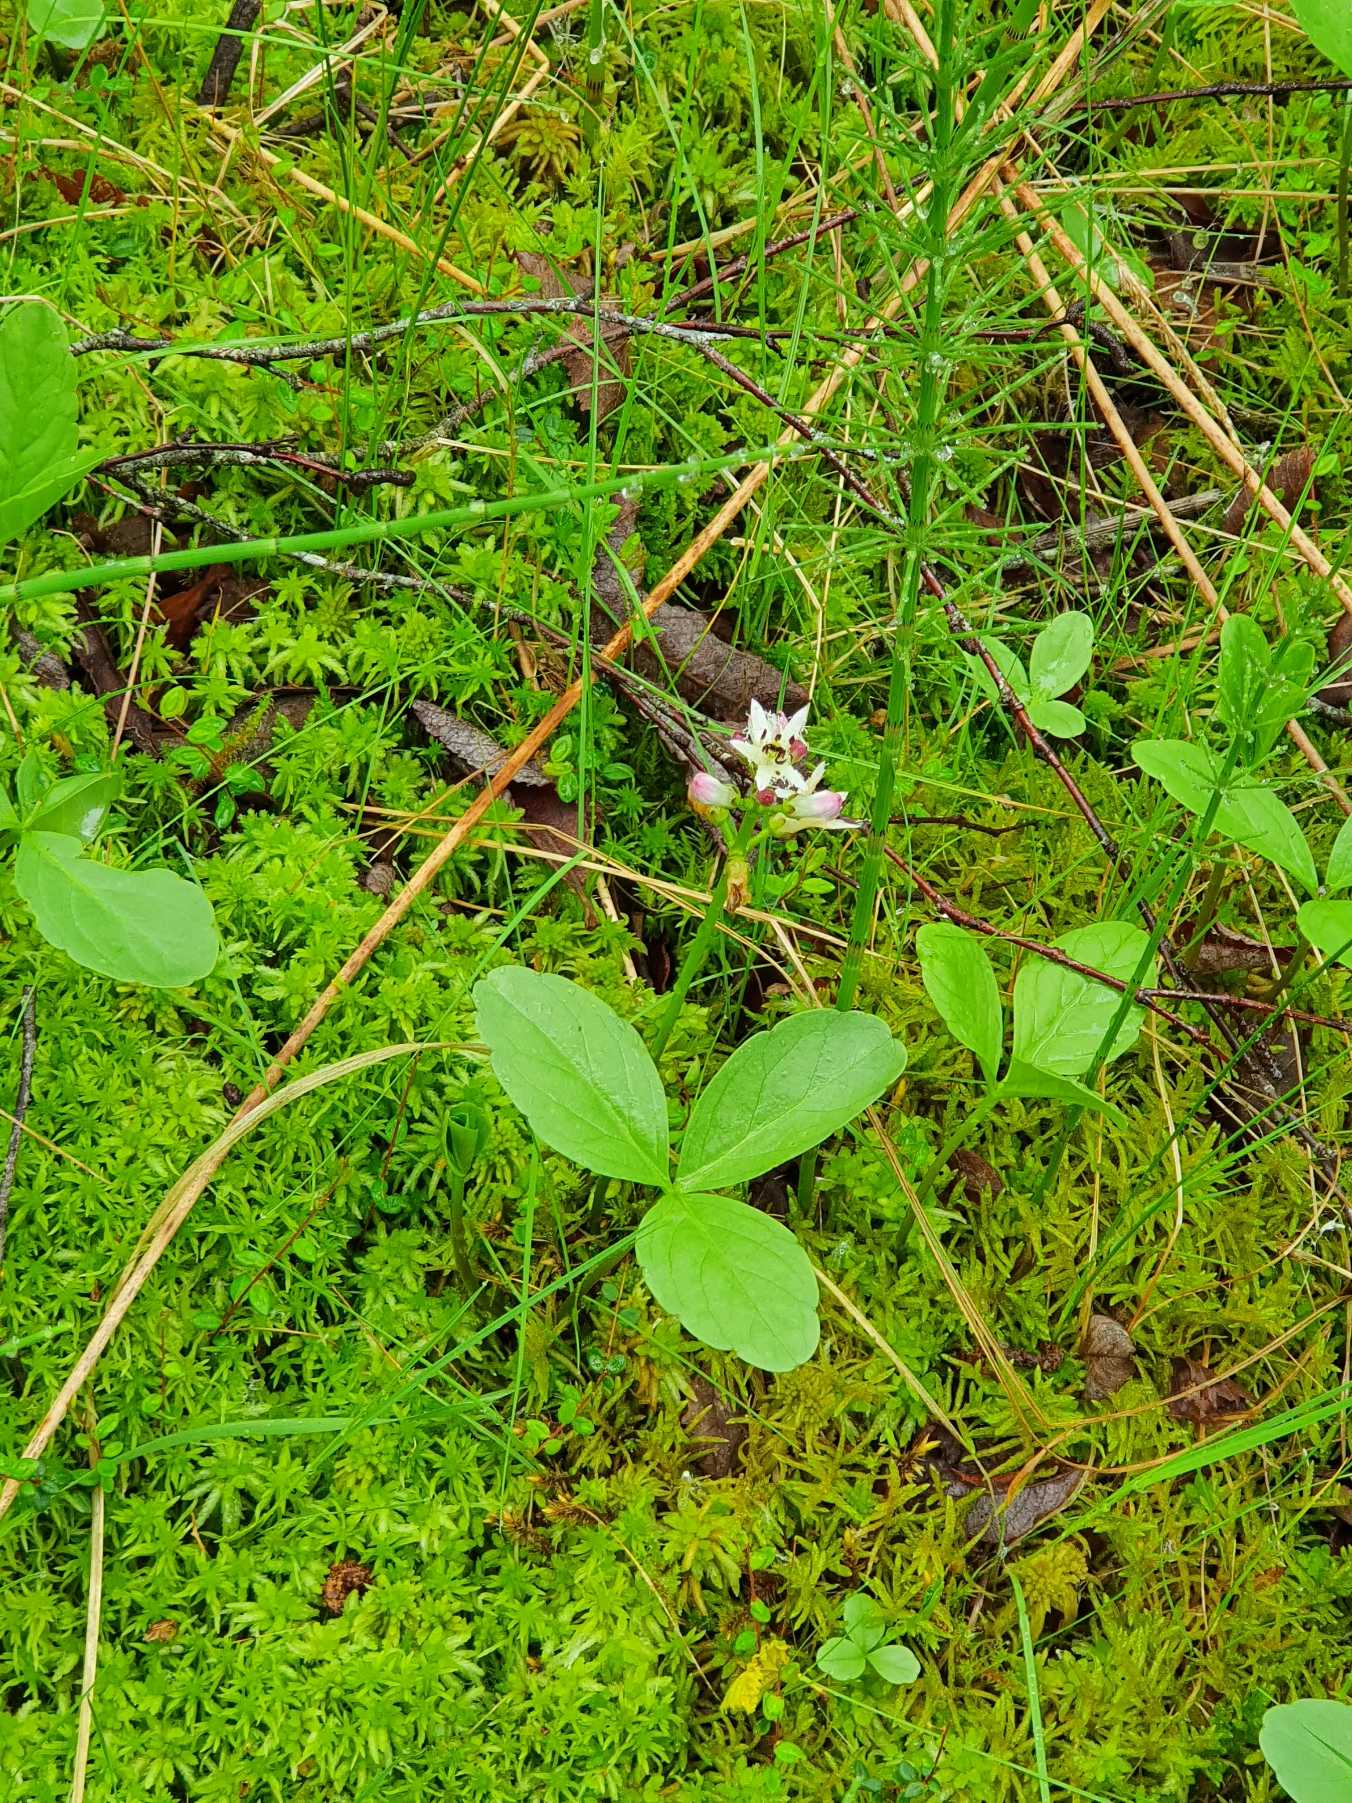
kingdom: Plantae
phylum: Tracheophyta
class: Magnoliopsida
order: Asterales
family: Menyanthaceae
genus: Menyanthes
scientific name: Menyanthes trifoliata
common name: Bukkeblad
